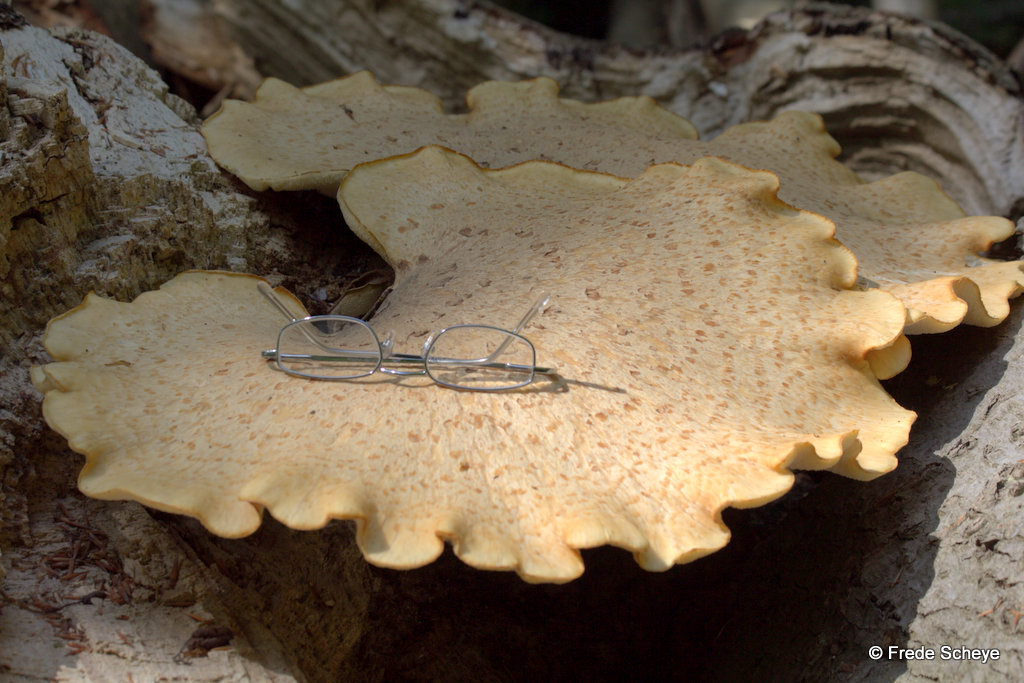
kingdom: Fungi
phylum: Basidiomycota
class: Agaricomycetes
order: Polyporales
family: Polyporaceae
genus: Cerioporus
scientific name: Cerioporus squamosus
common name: skællet stilkporesvamp
